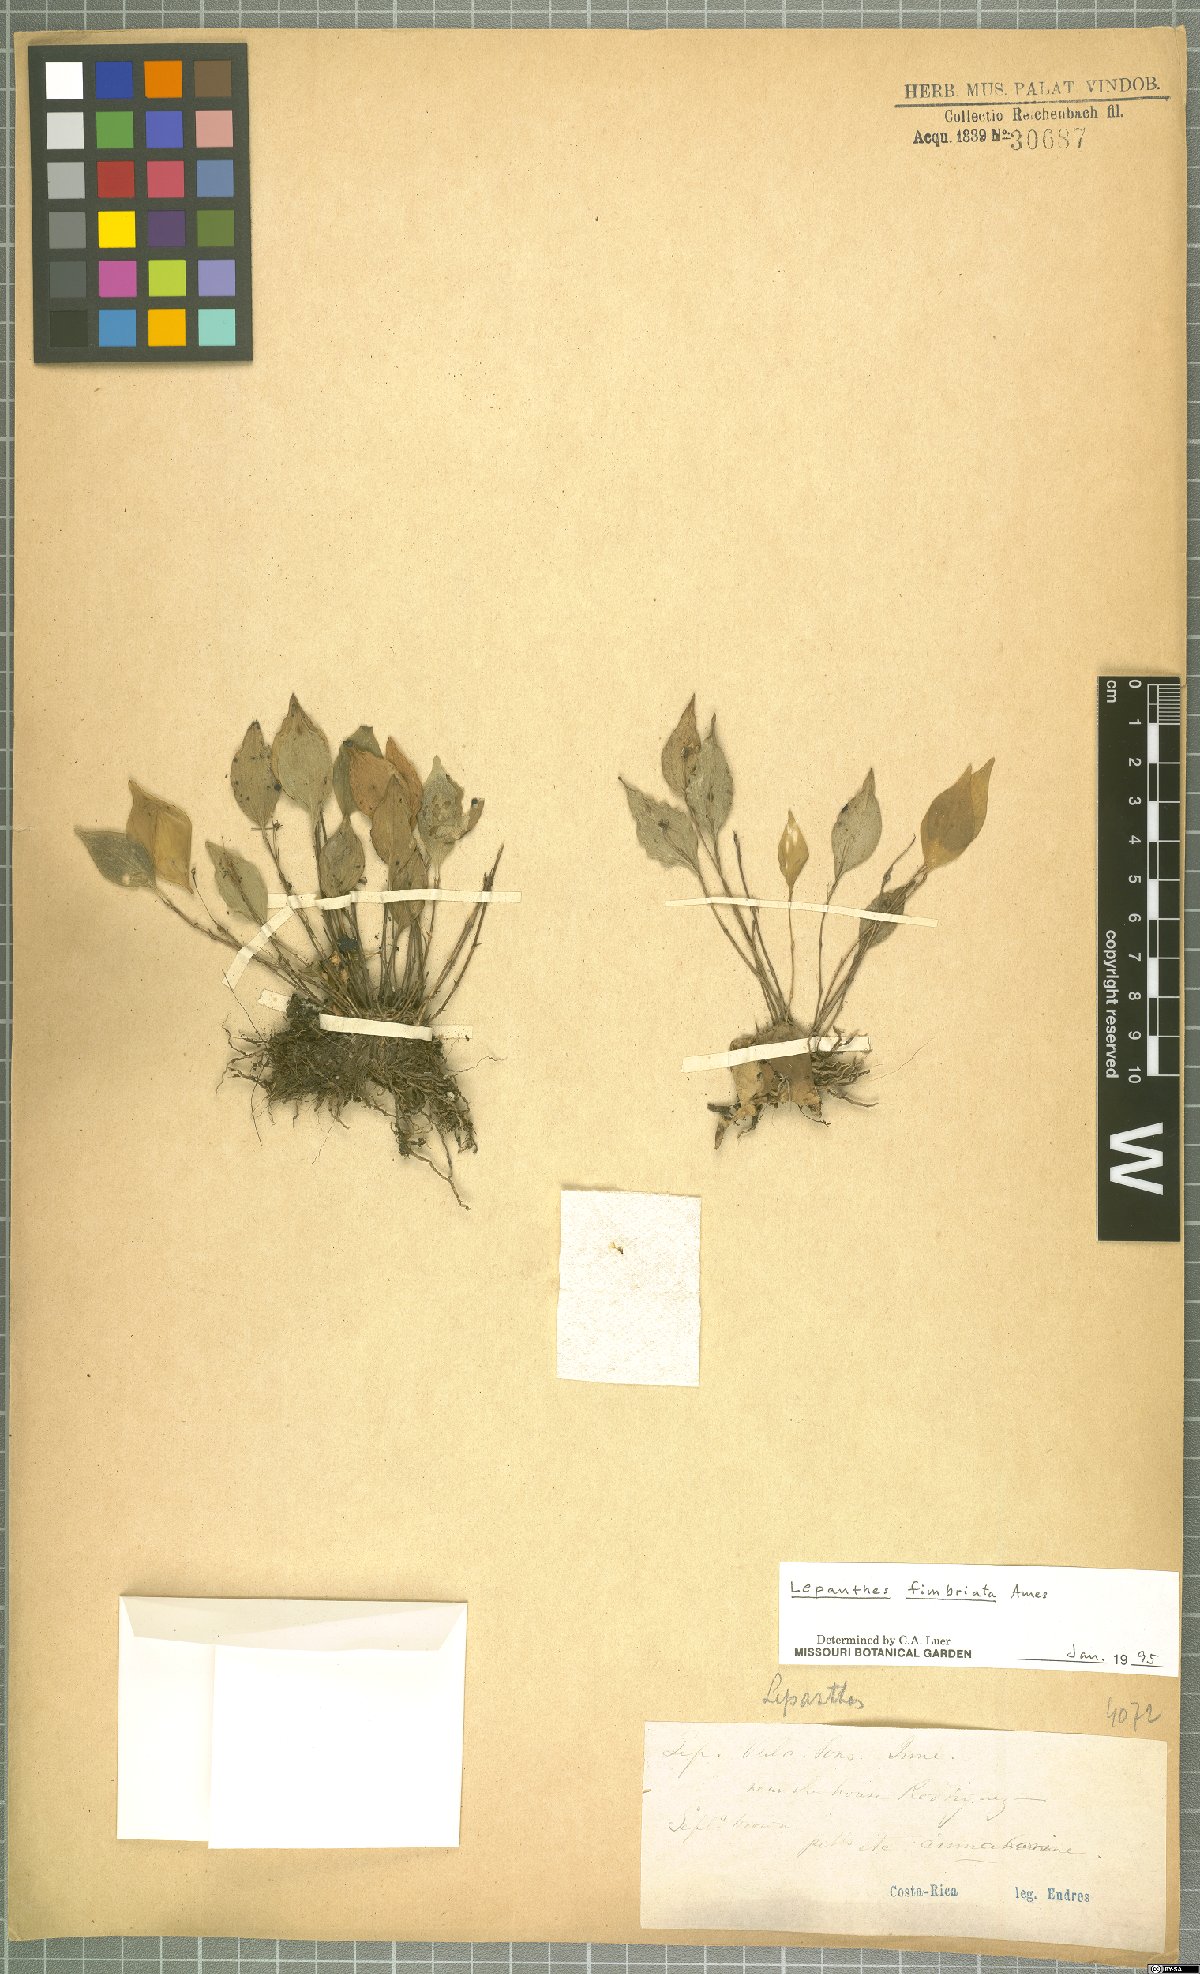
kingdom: Plantae
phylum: Tracheophyta
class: Liliopsida
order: Asparagales
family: Orchidaceae
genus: Lepanthes
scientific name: Lepanthes fimbriata
